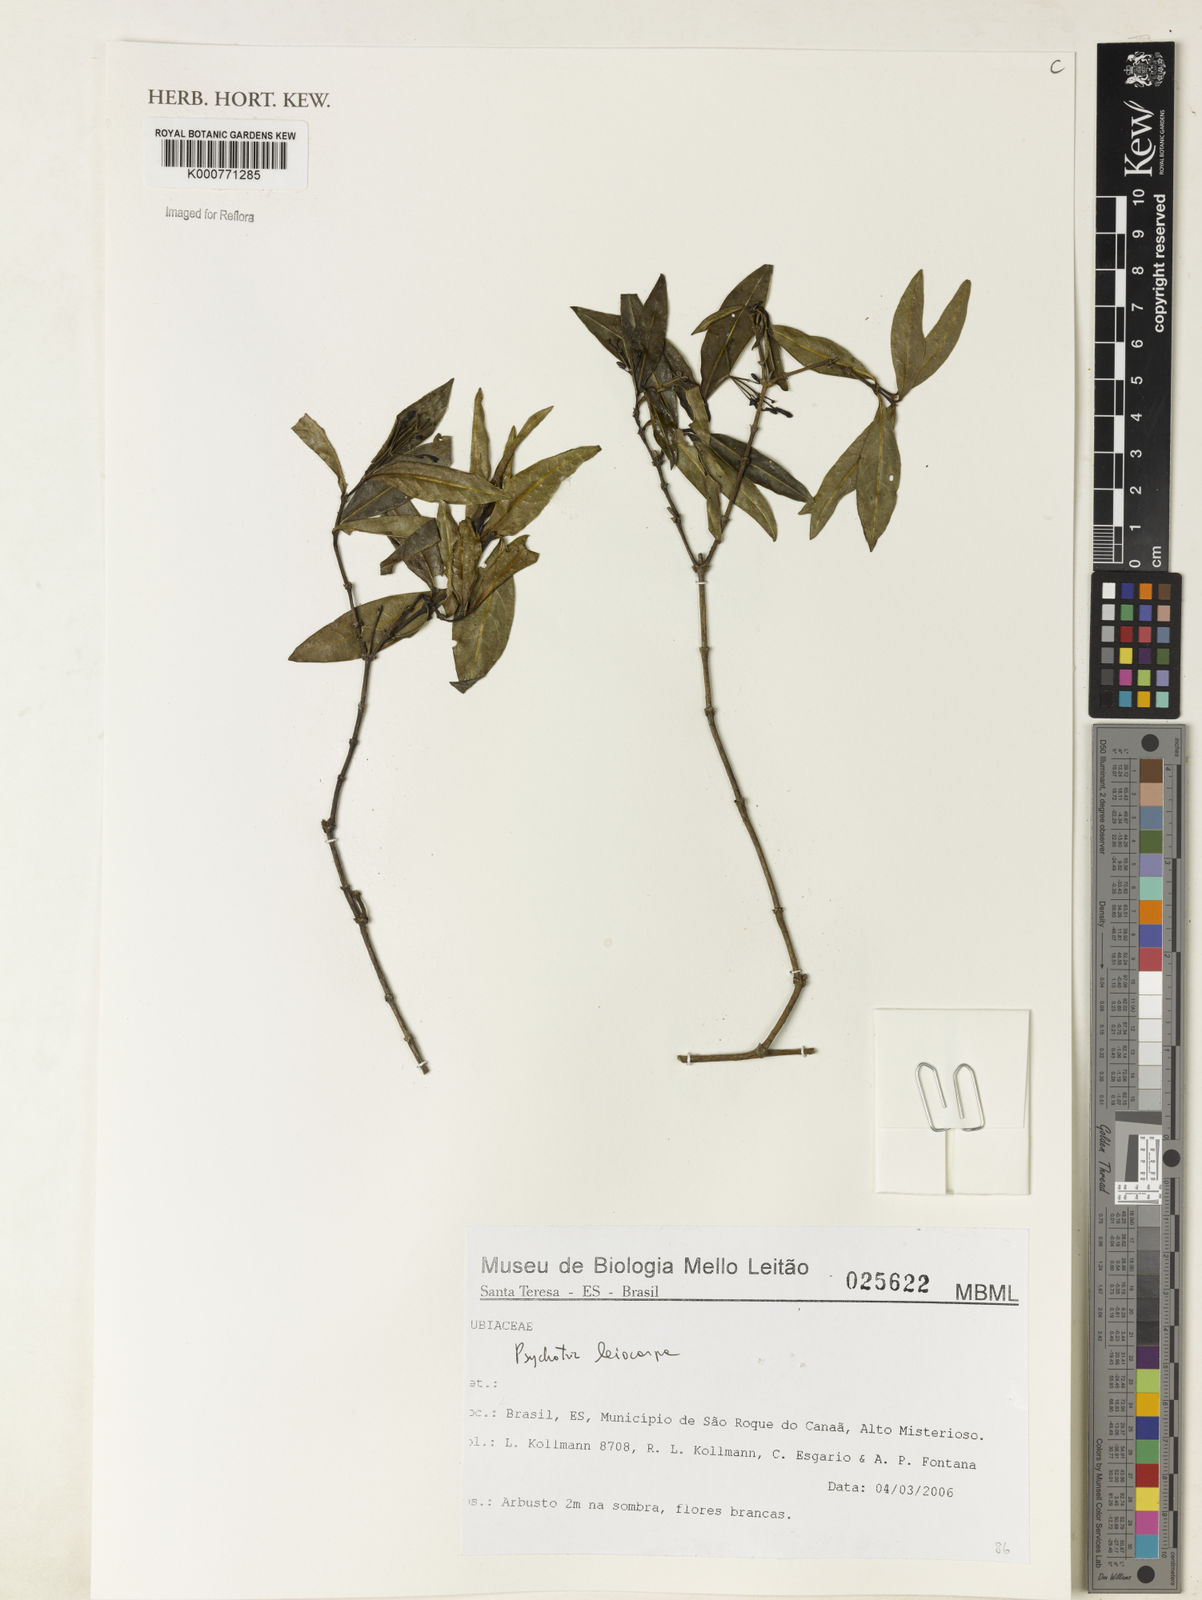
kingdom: Plantae
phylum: Tracheophyta
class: Magnoliopsida
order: Gentianales
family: Rubiaceae
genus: Psychotria
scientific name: Psychotria leiocarpa
